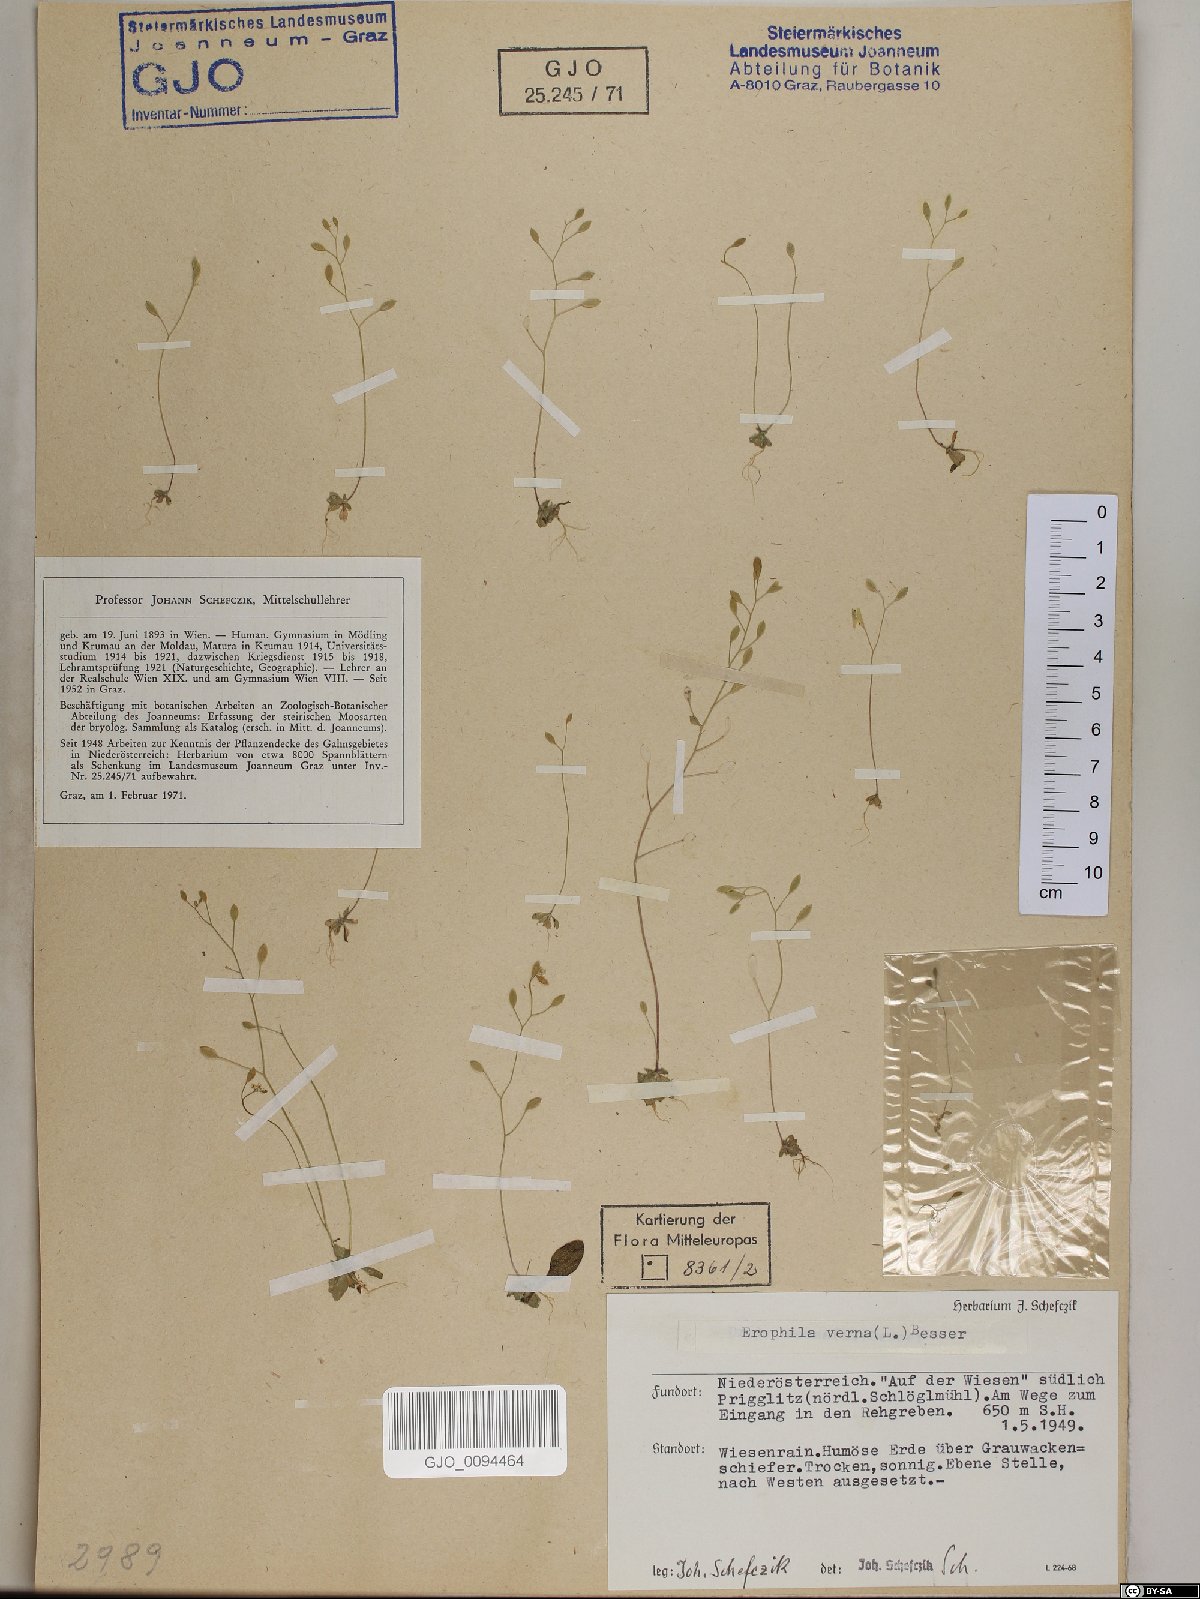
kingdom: Plantae
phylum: Tracheophyta
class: Magnoliopsida
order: Brassicales
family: Brassicaceae
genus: Draba
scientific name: Draba verna
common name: Spring draba
